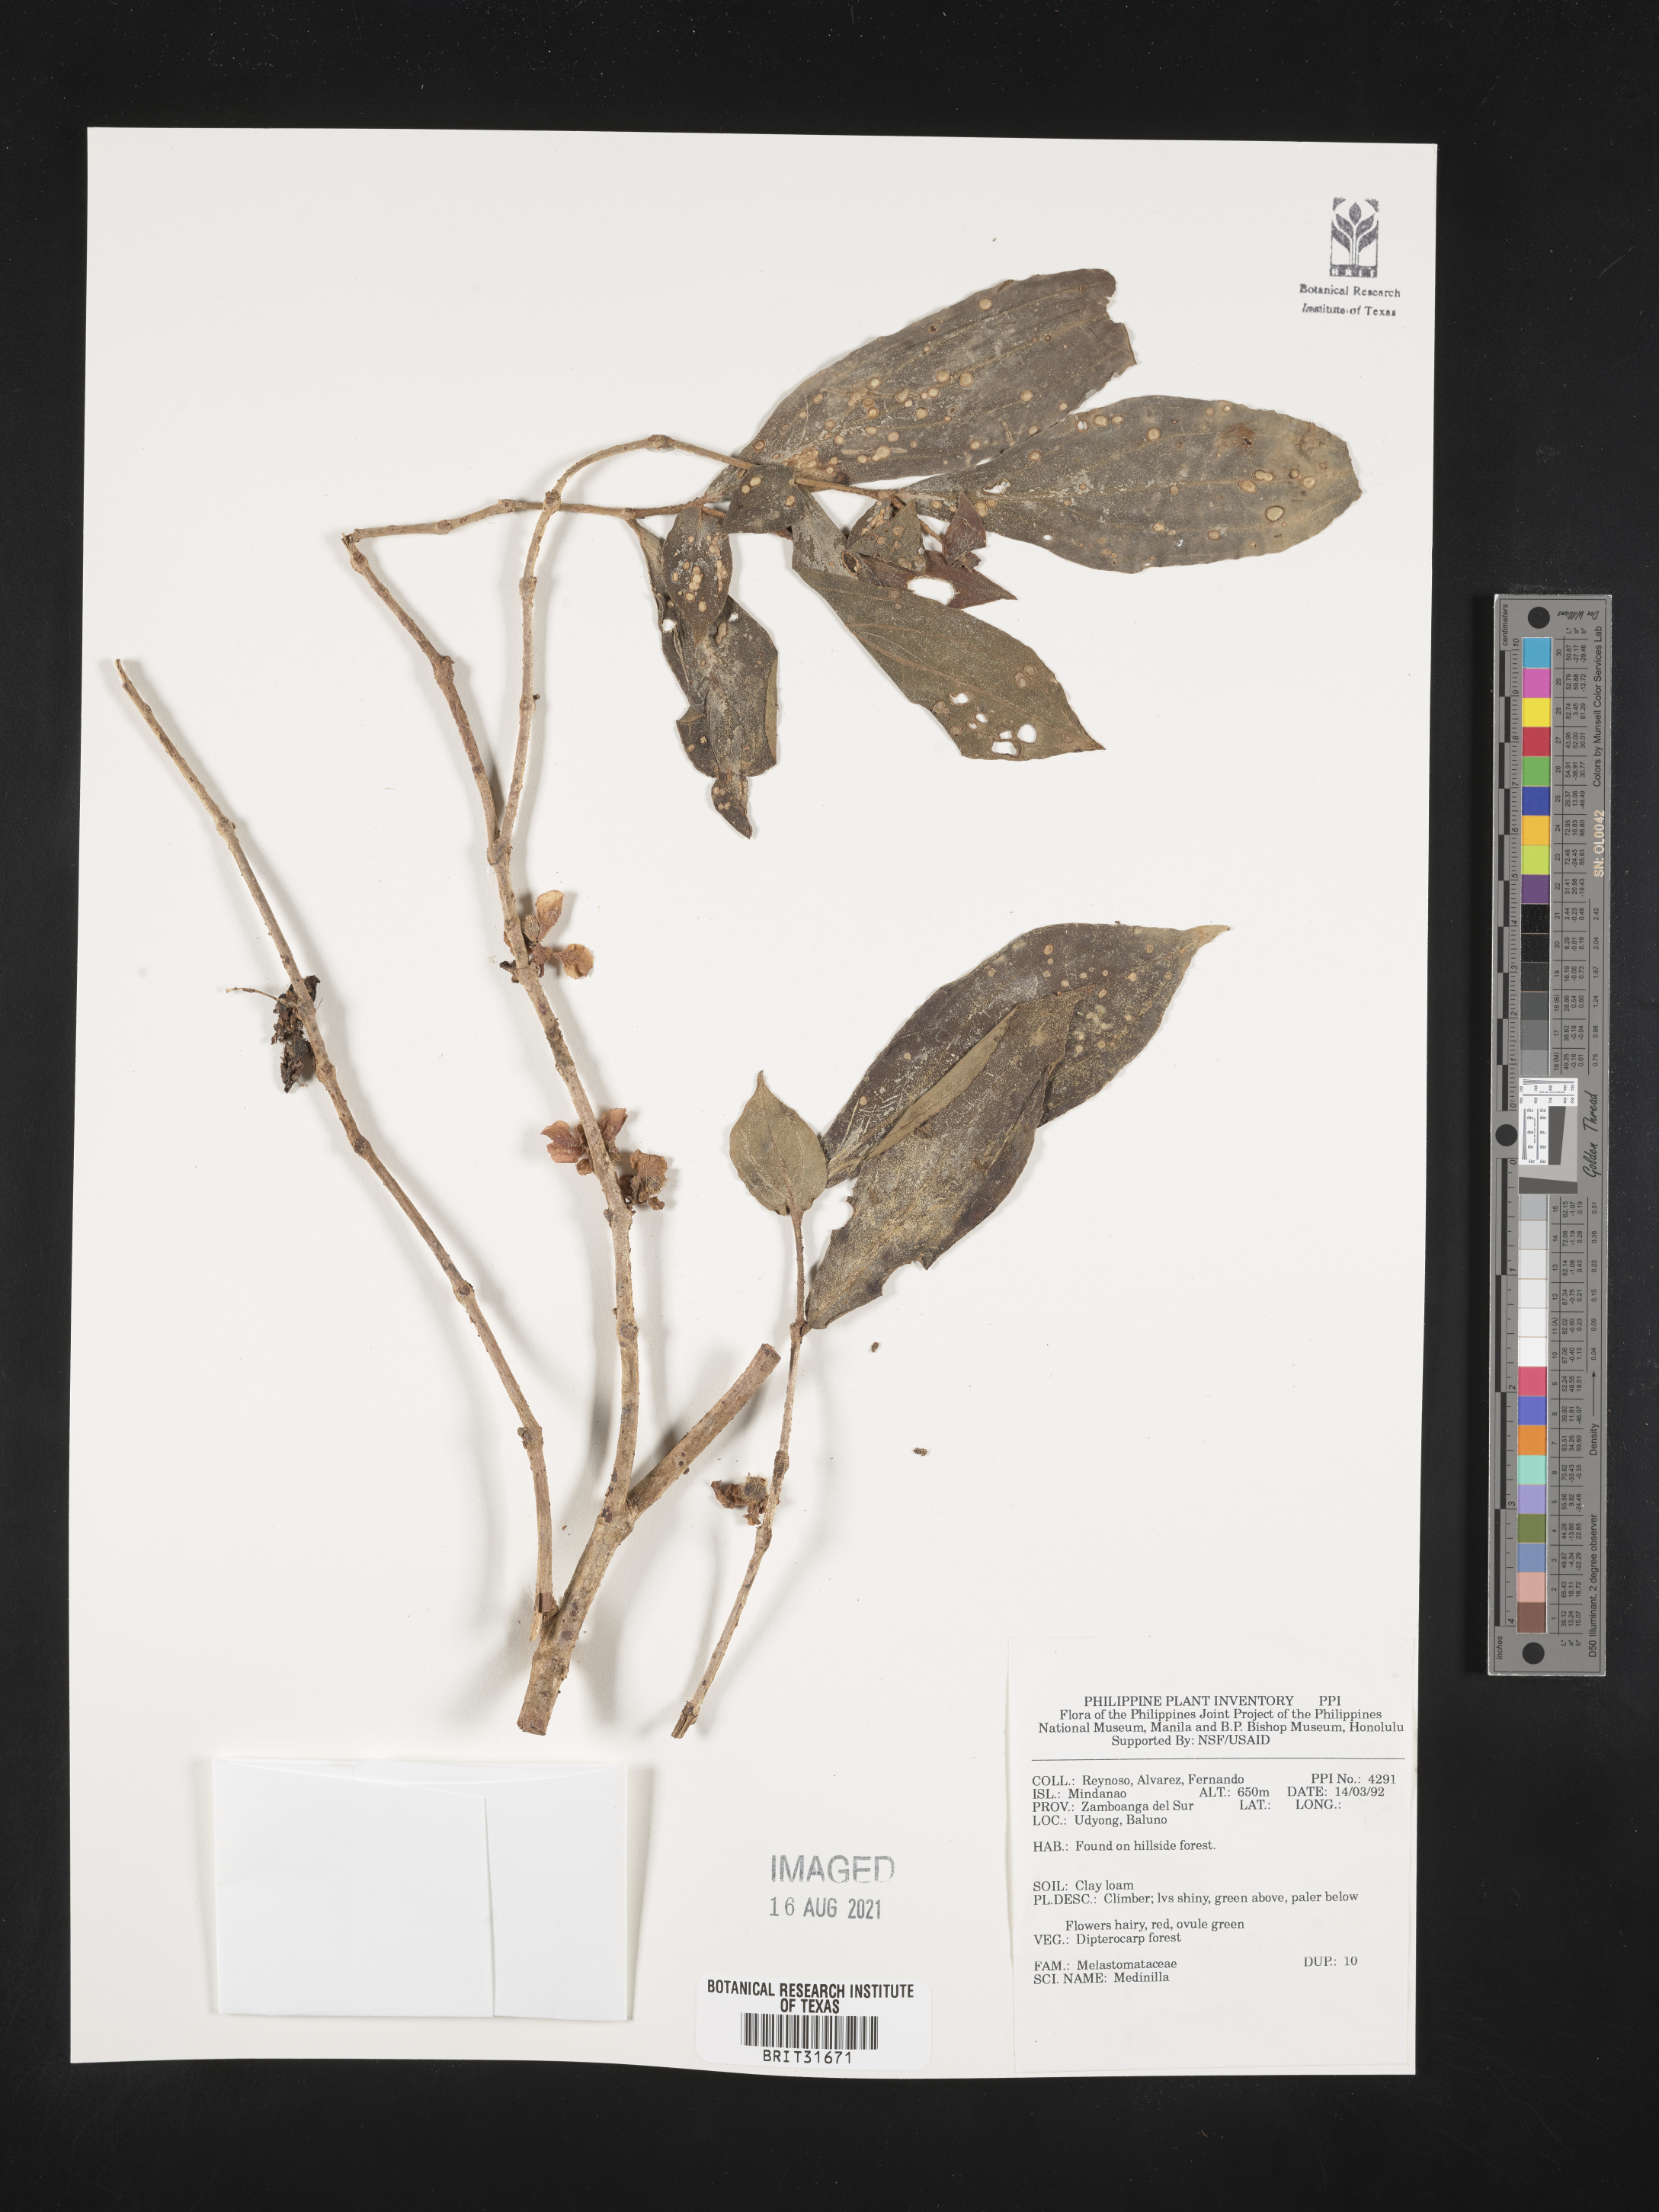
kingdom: Plantae
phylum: Tracheophyta
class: Magnoliopsida
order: Myrtales
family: Melastomataceae
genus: Medinilla
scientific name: Medinilla
